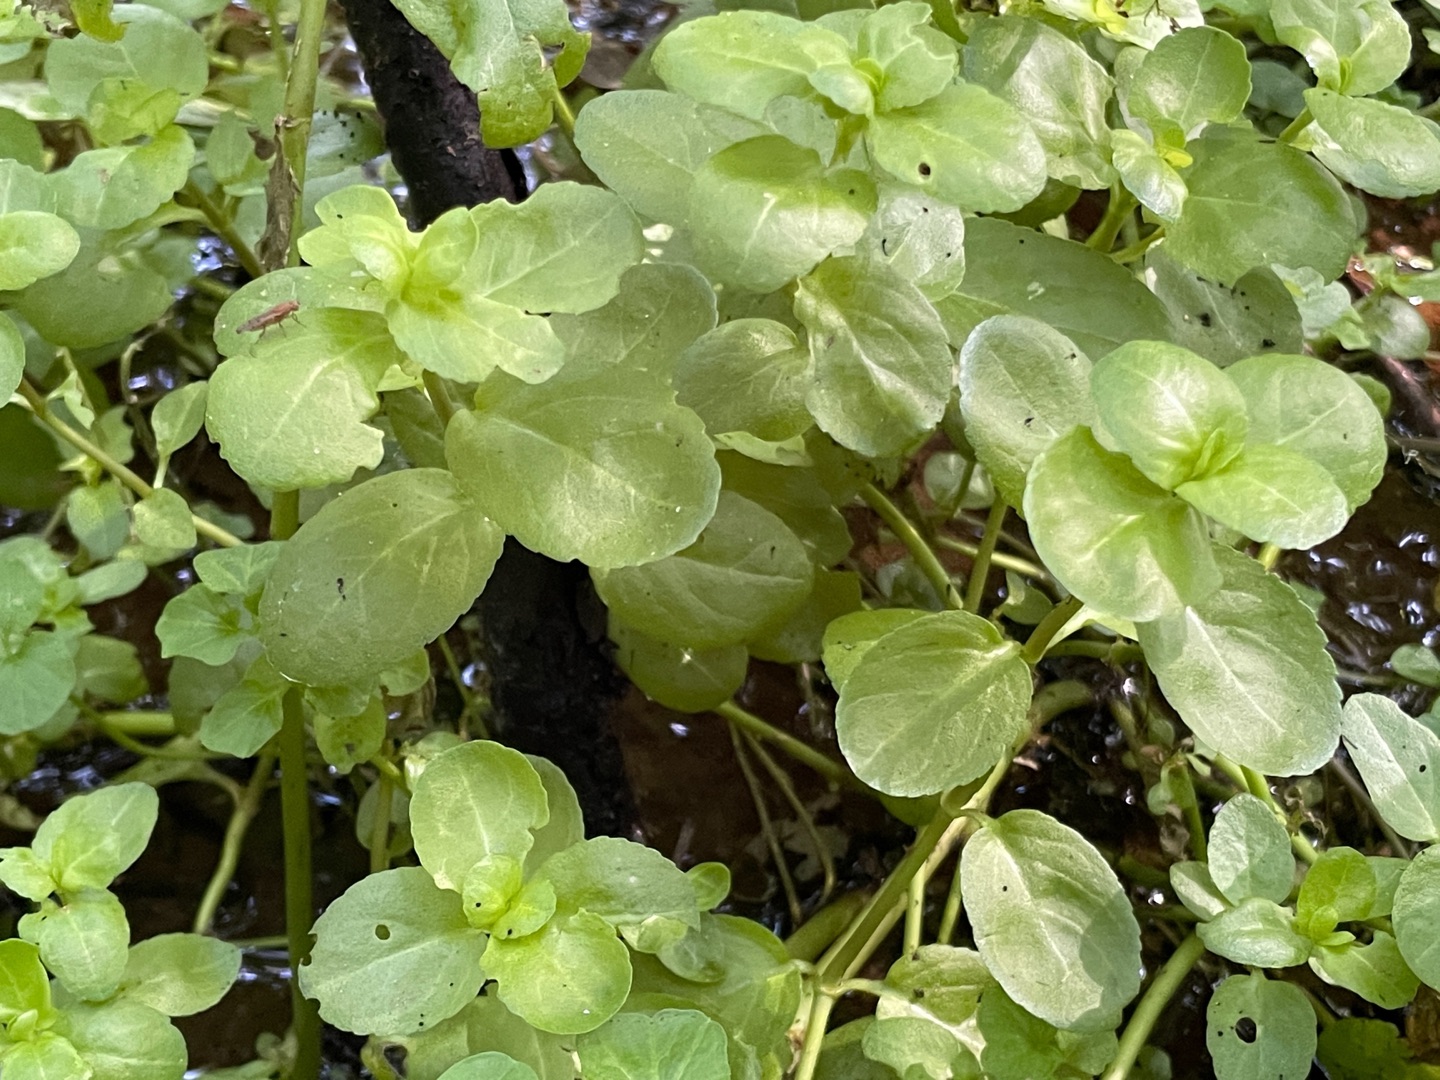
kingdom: Plantae
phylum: Tracheophyta
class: Magnoliopsida
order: Lamiales
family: Plantaginaceae
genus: Veronica
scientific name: Veronica beccabunga
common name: Tykbladet ærenpris
